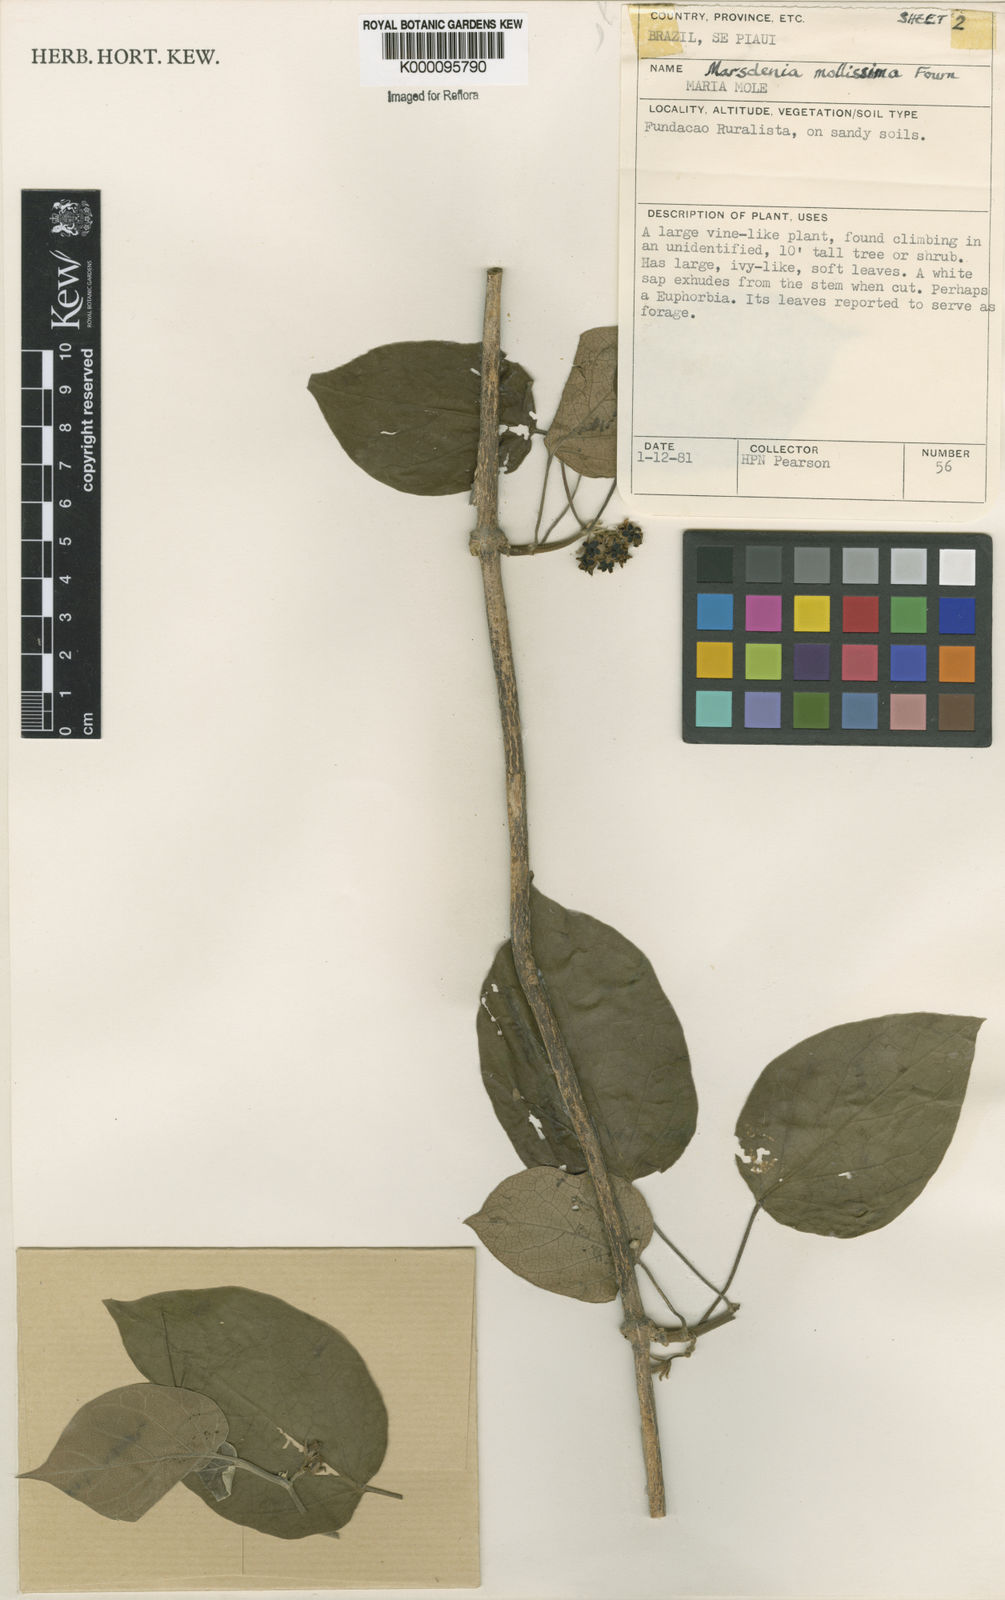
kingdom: Plantae
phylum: Tracheophyta
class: Magnoliopsida
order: Gentianales
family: Apocynaceae
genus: Ruehssia
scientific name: Ruehssia altissima
